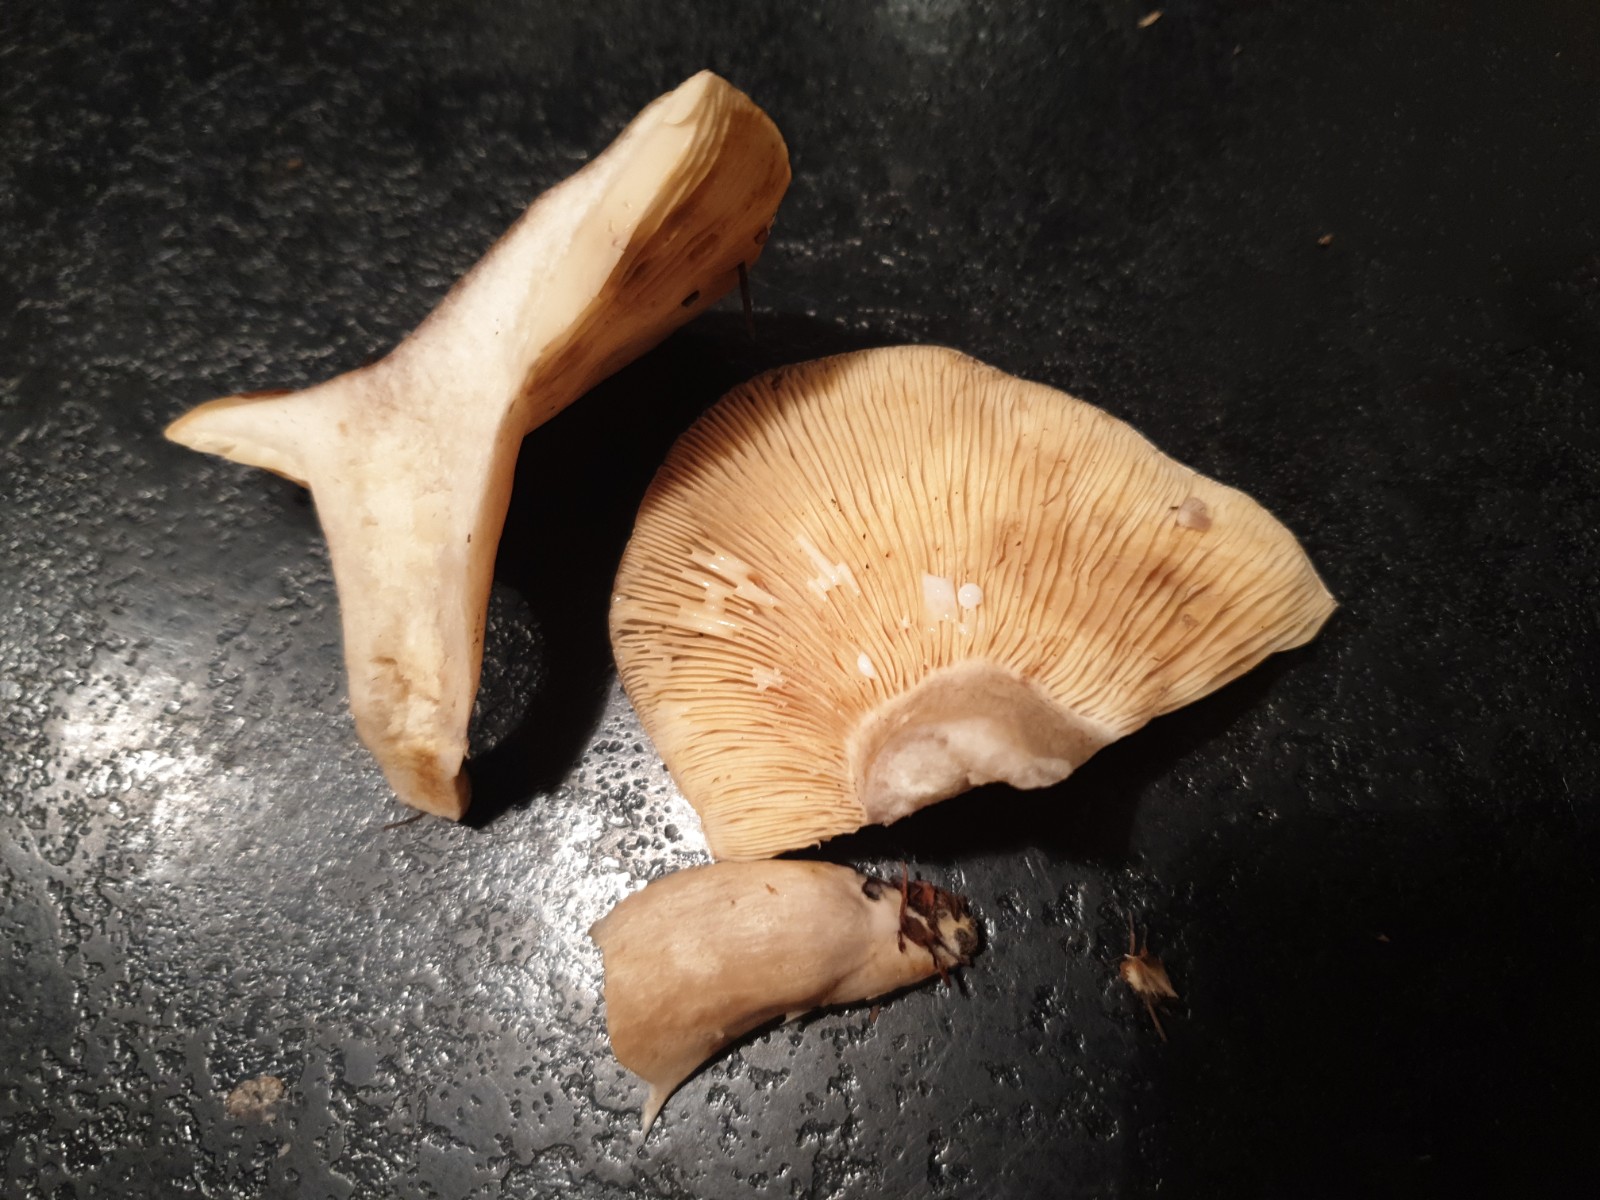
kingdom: Fungi
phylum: Basidiomycota
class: Agaricomycetes
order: Russulales
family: Russulaceae
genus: Lactarius
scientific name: Lactarius fluens
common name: lysrandet mælkehat
